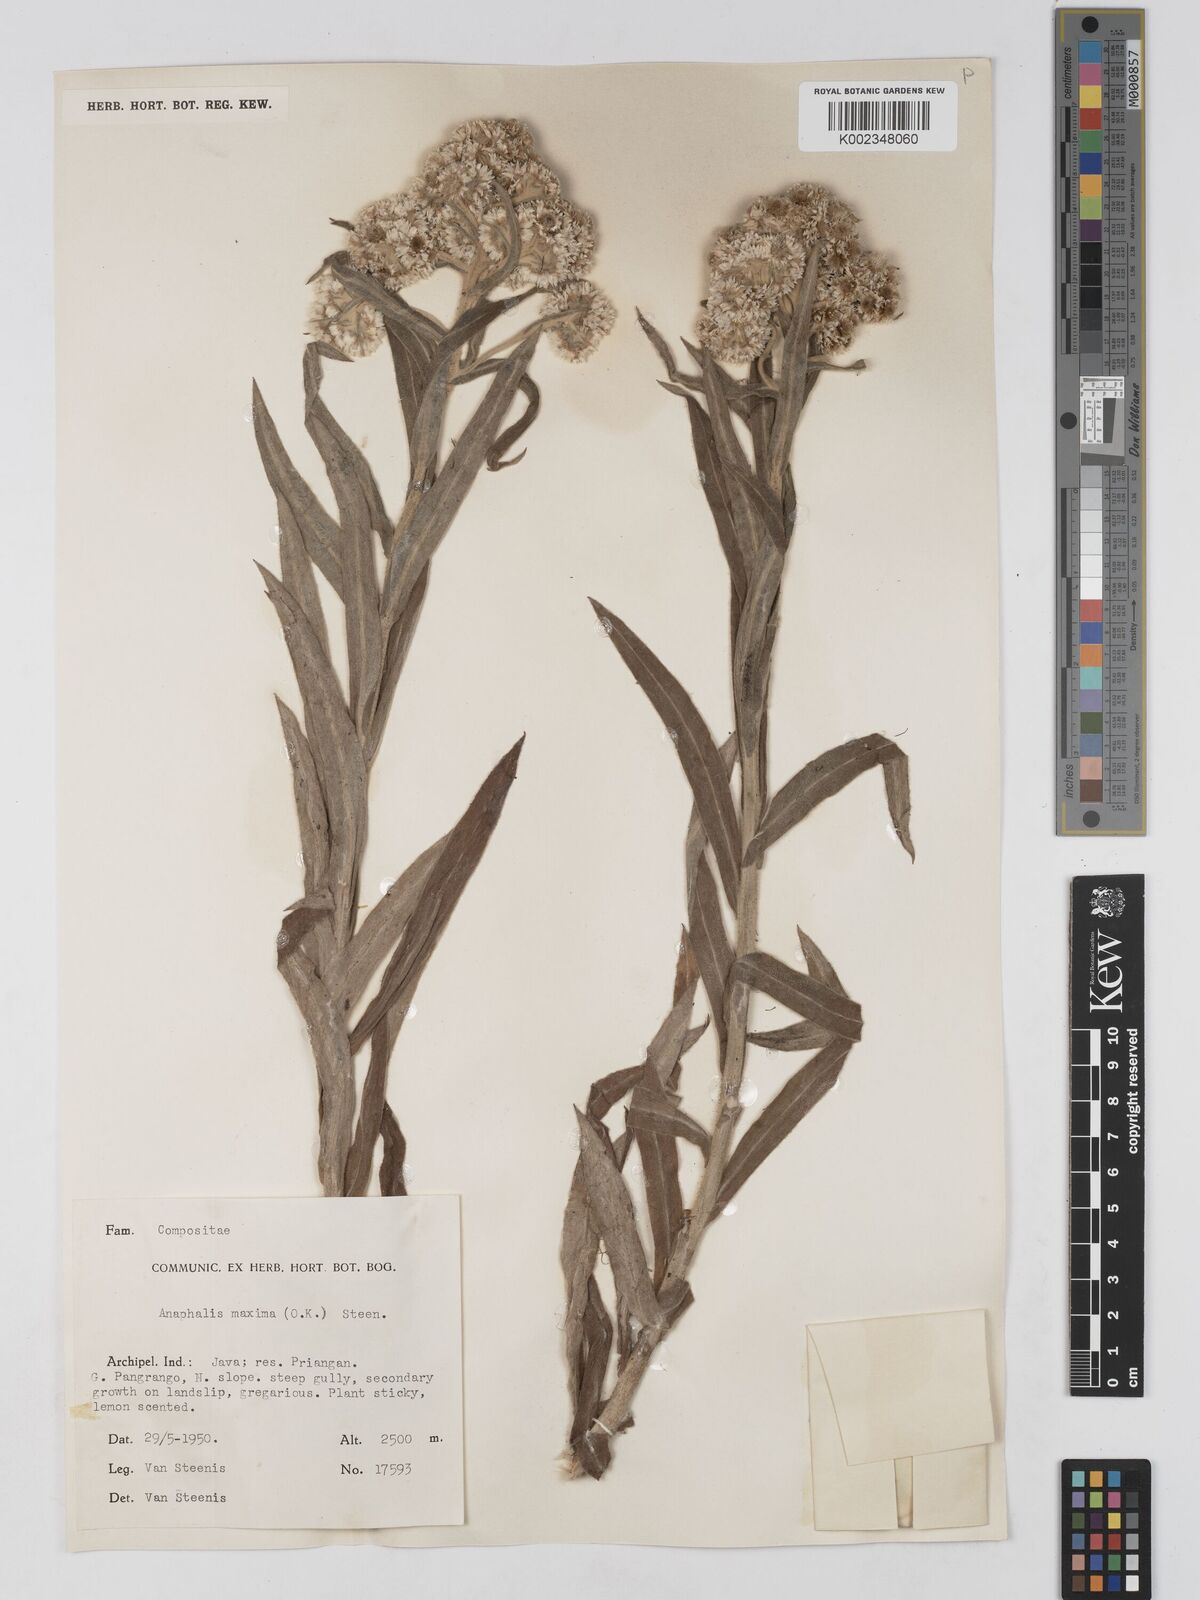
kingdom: Plantae
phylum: Tracheophyta
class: Magnoliopsida
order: Asterales
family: Asteraceae
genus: Anaphalis
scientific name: Anaphalis maxima
